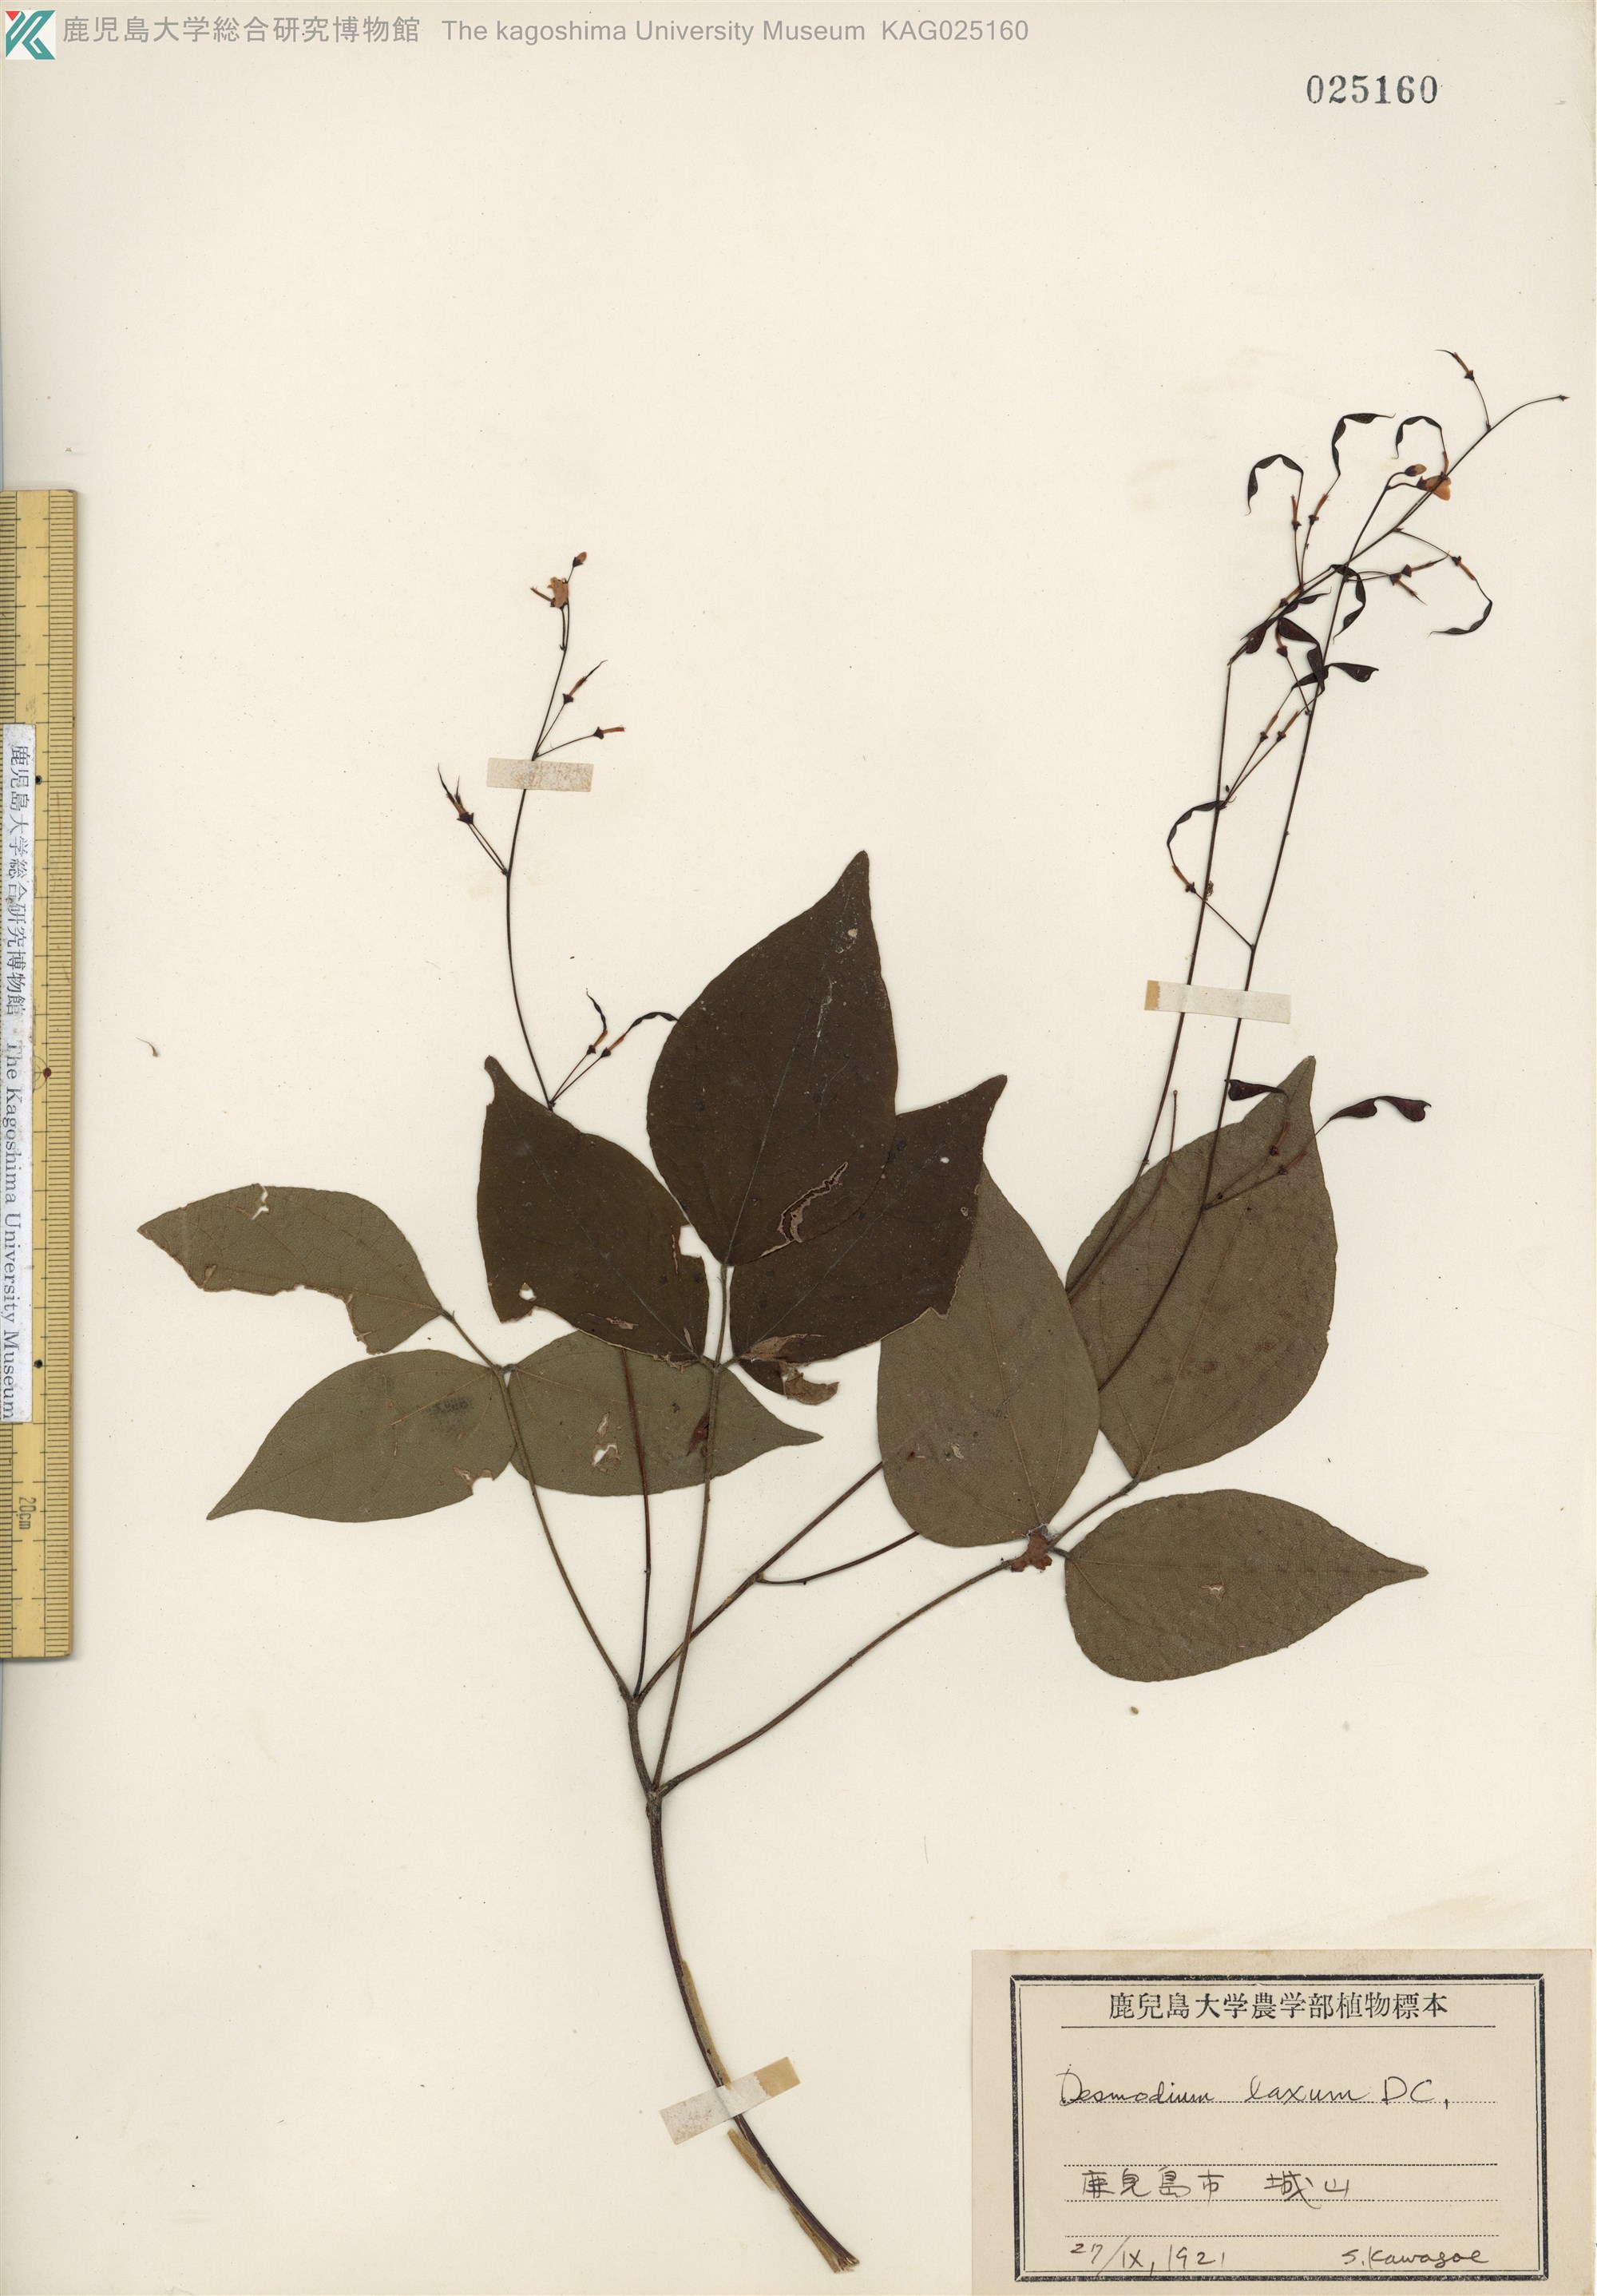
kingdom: Plantae
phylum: Tracheophyta
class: Magnoliopsida
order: Fabales
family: Fabaceae
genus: Desmodium
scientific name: Desmodium laxum
